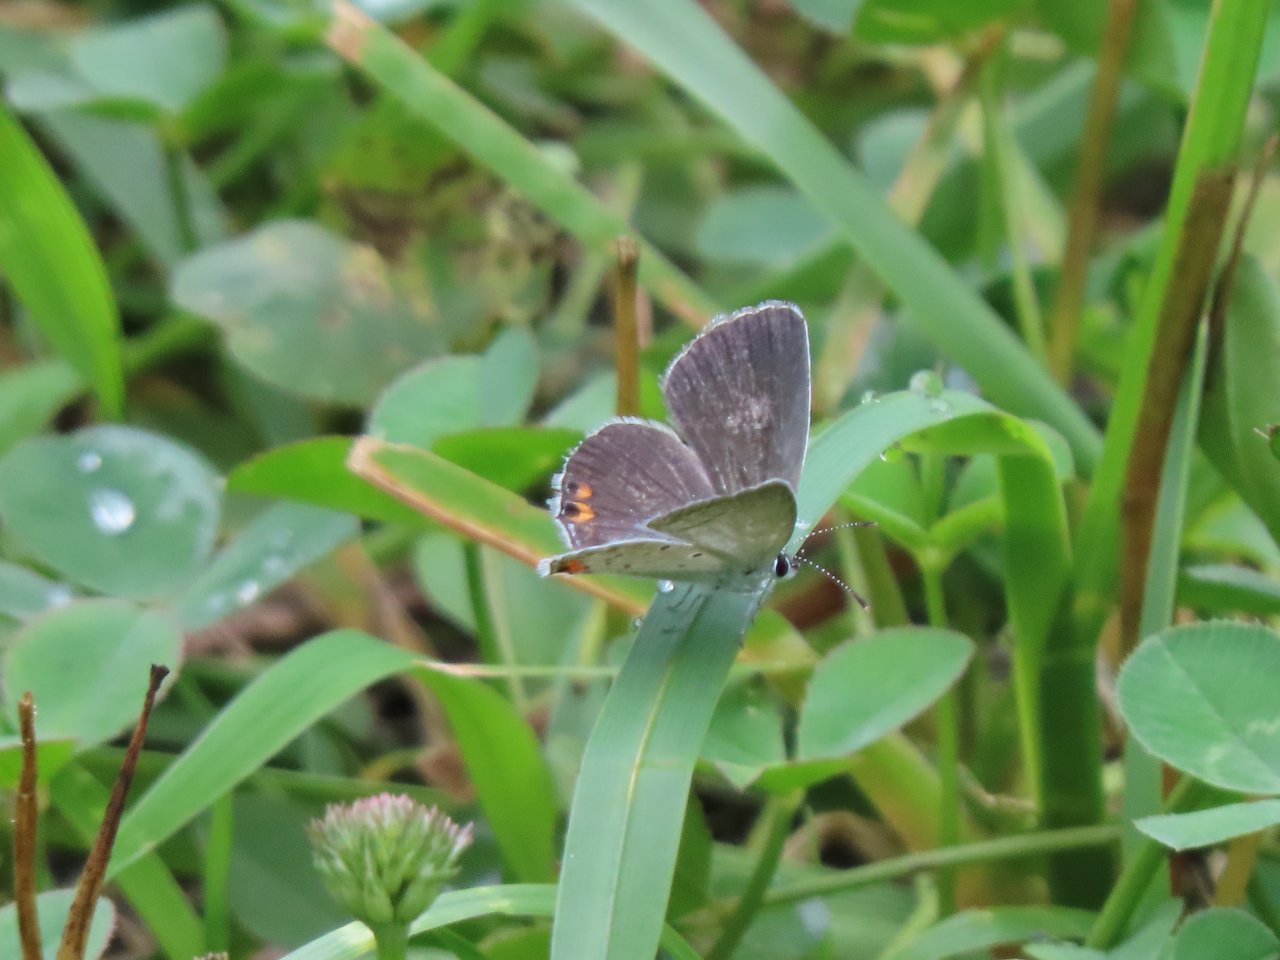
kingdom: Animalia
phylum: Arthropoda
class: Insecta
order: Lepidoptera
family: Lycaenidae
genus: Elkalyce
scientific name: Elkalyce comyntas
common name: Eastern Tailed-Blue
